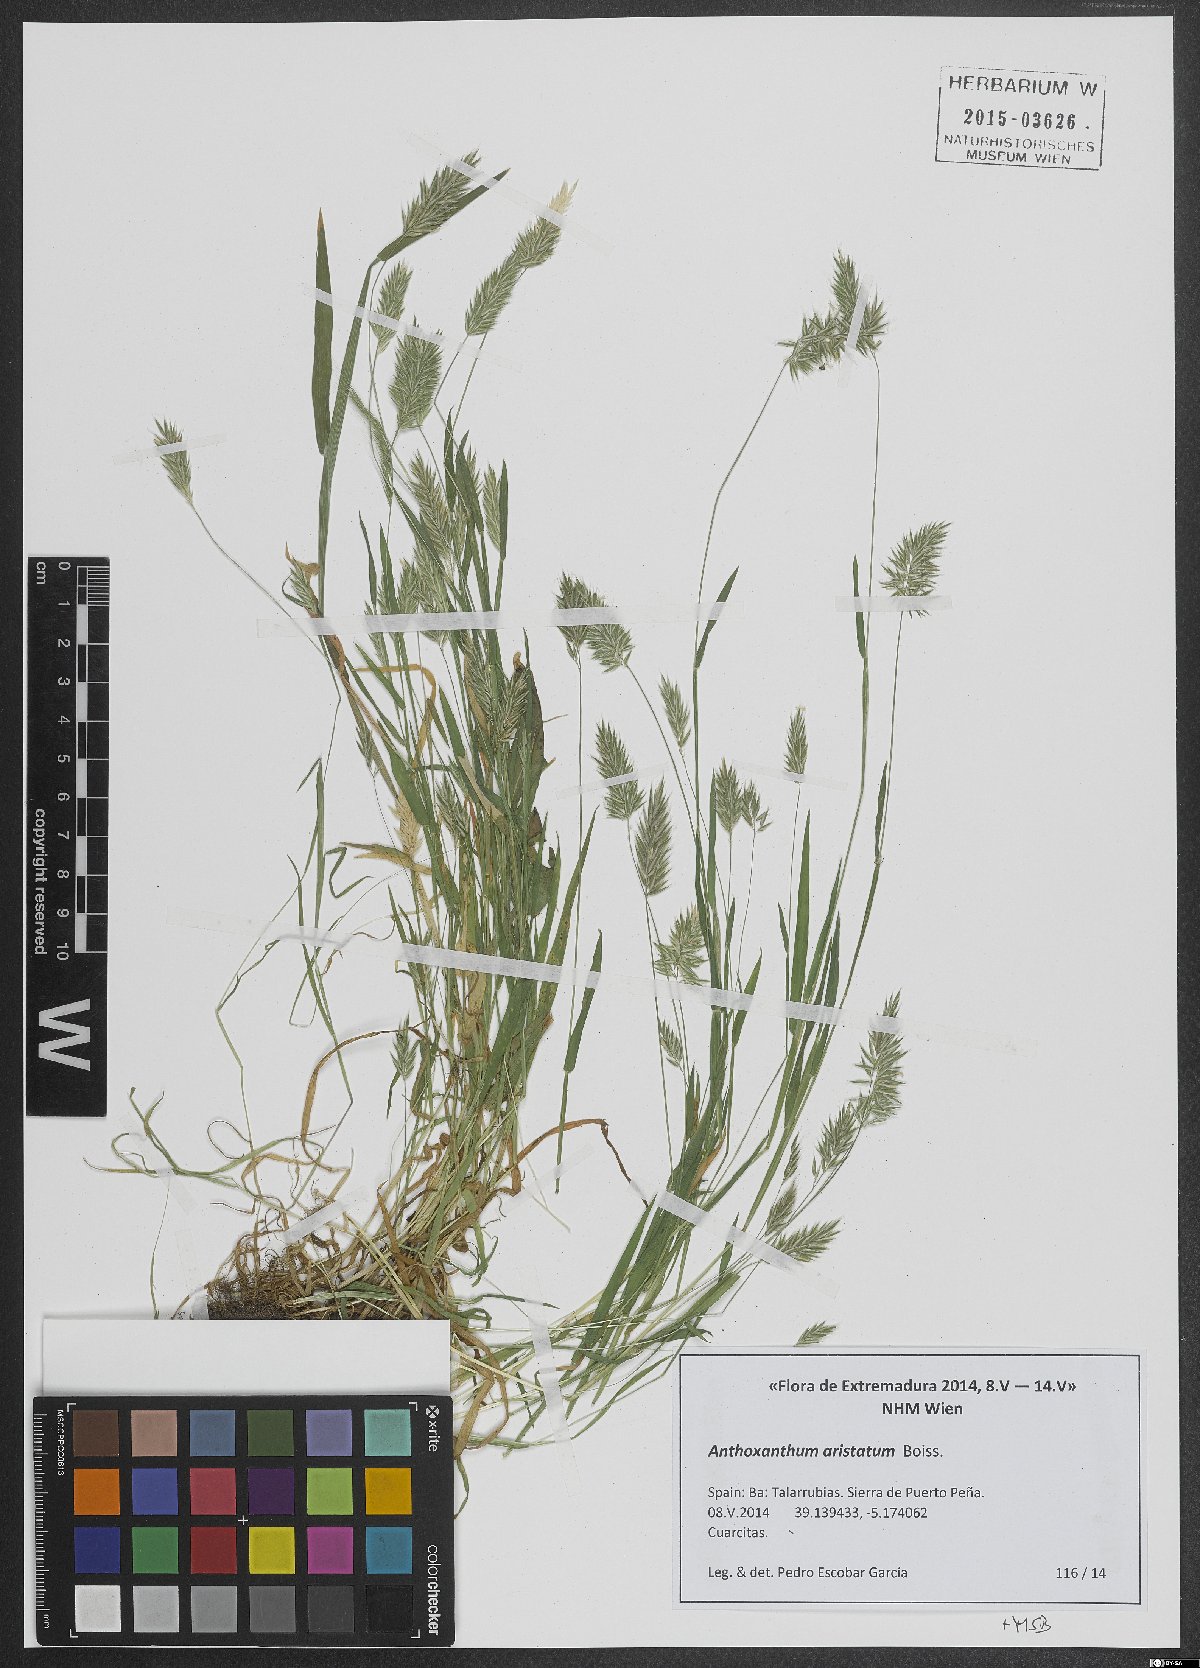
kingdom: Plantae
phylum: Tracheophyta
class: Liliopsida
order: Poales
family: Poaceae
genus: Anthoxanthum
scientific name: Anthoxanthum aristatum
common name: Annual vernal-grass
